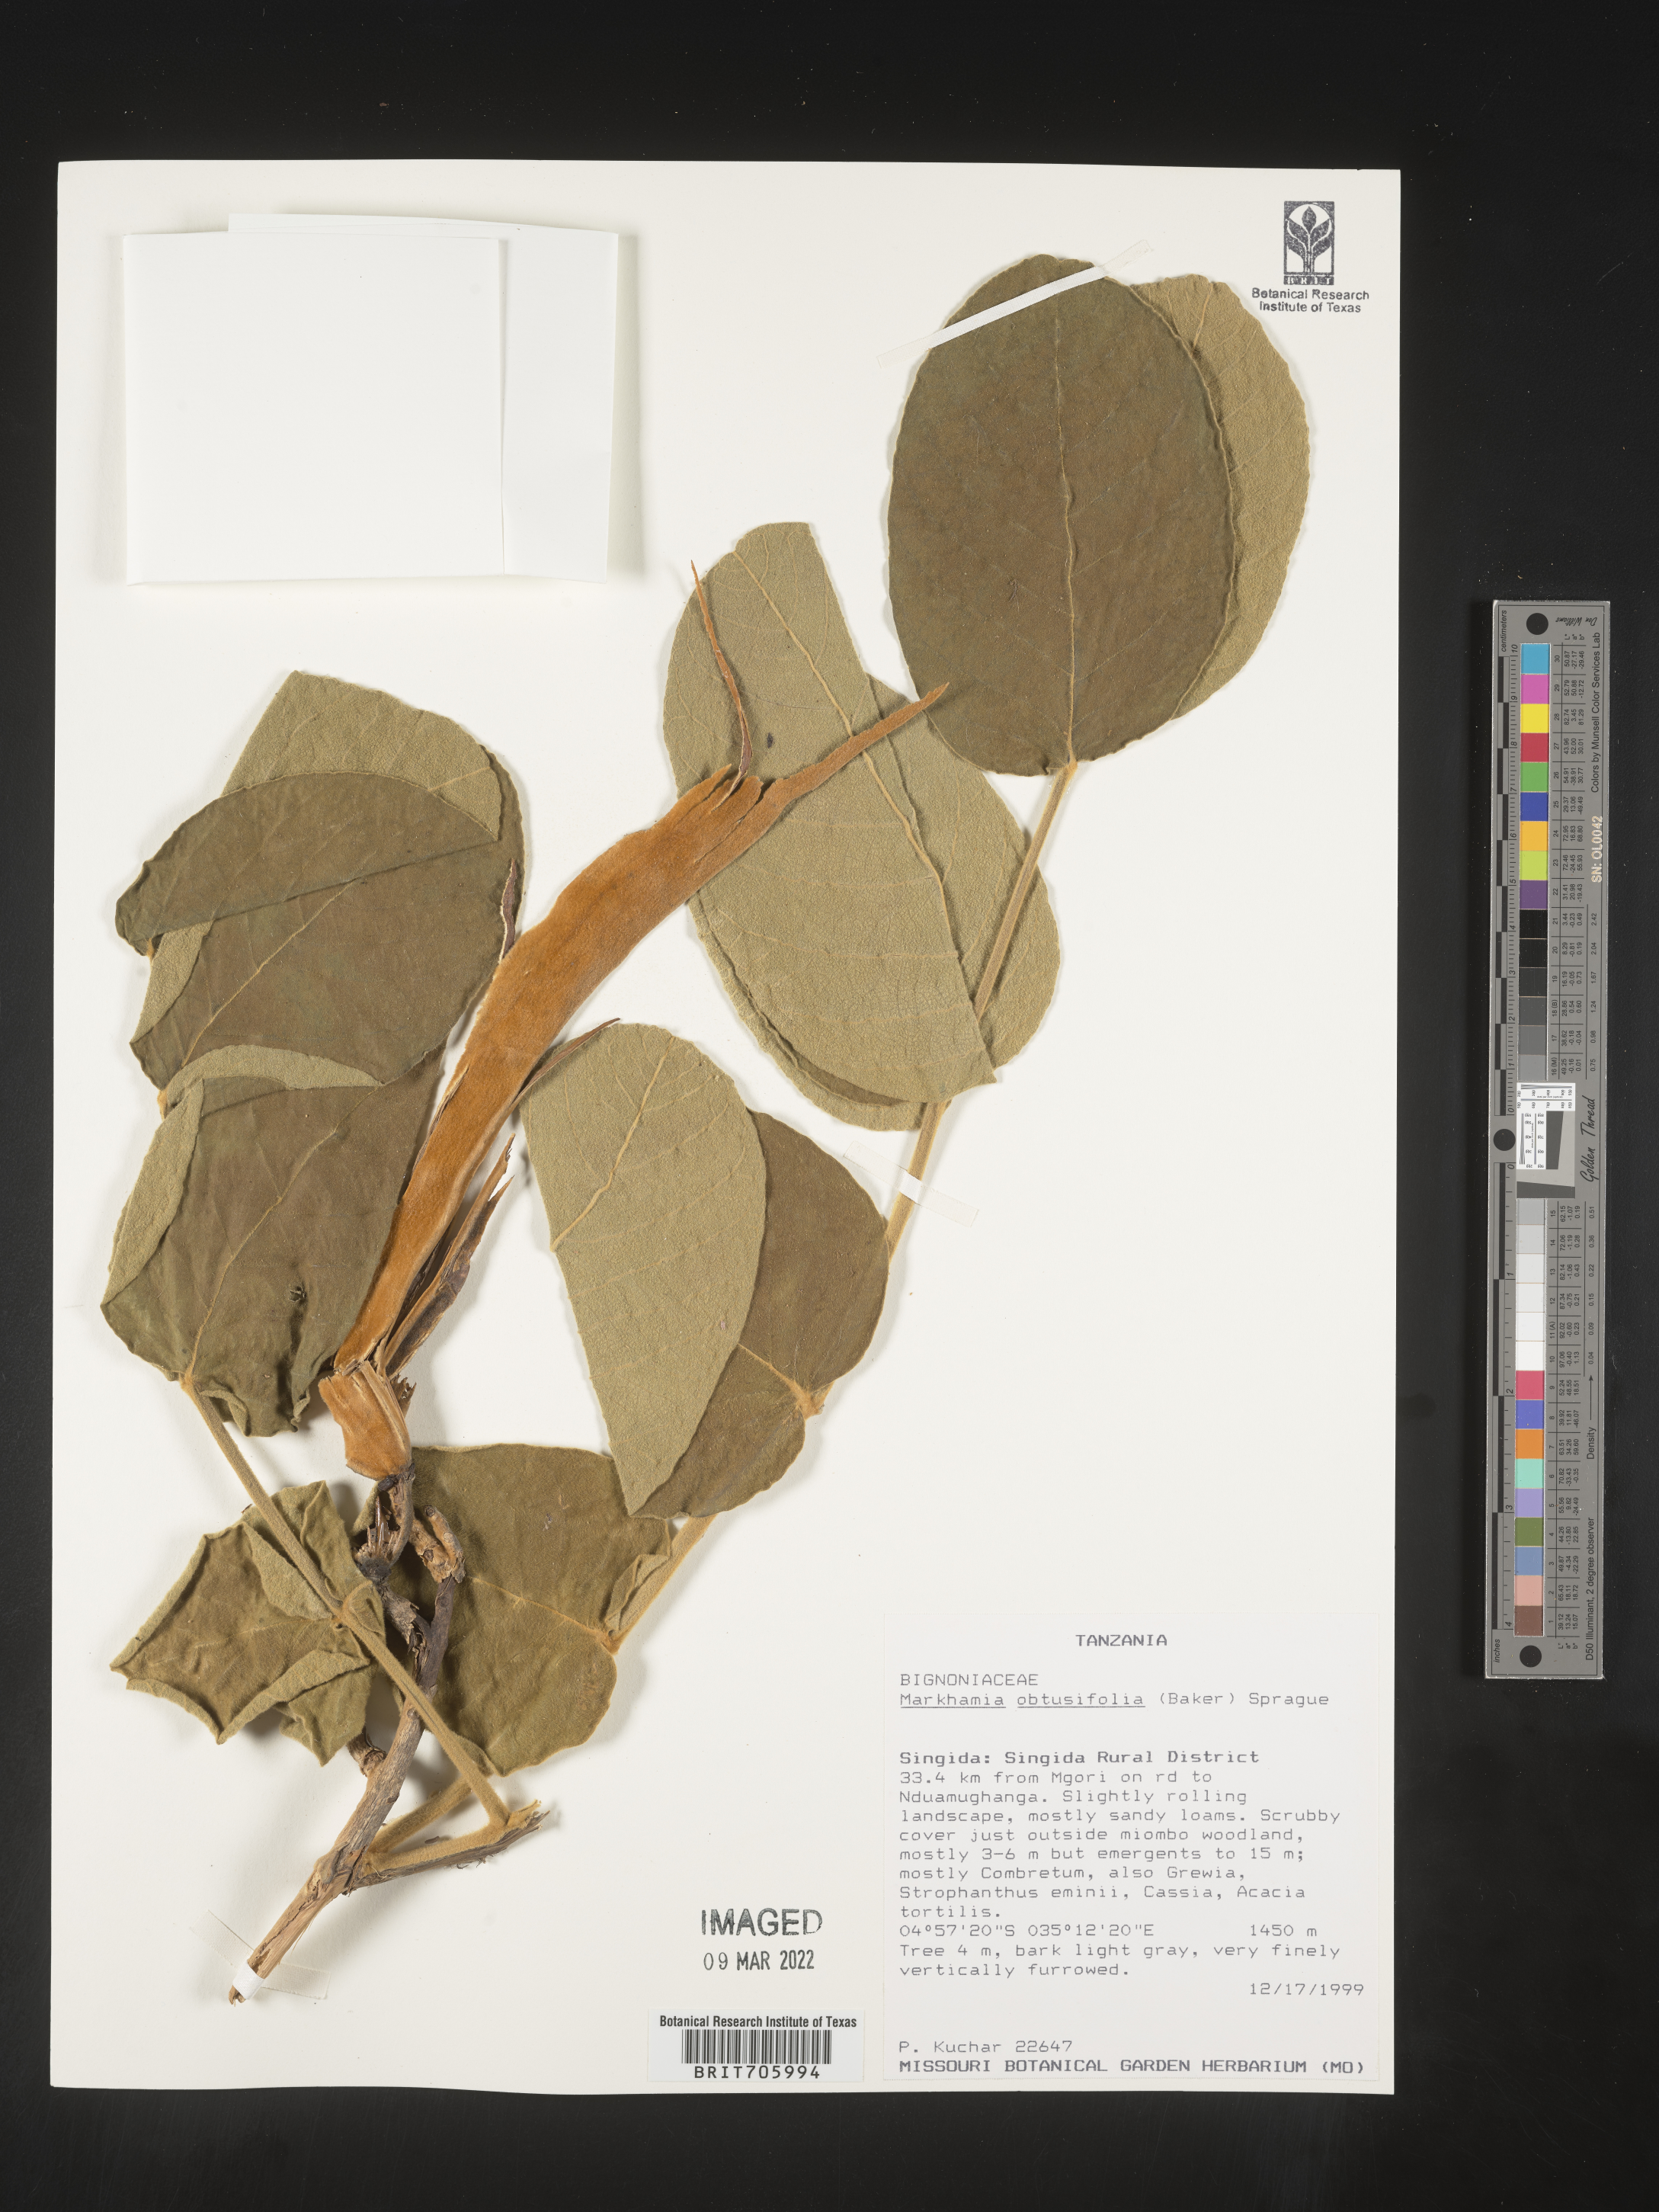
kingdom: Plantae
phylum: Tracheophyta
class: Magnoliopsida
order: Lamiales
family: Bignoniaceae
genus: Markhamia
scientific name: Markhamia
